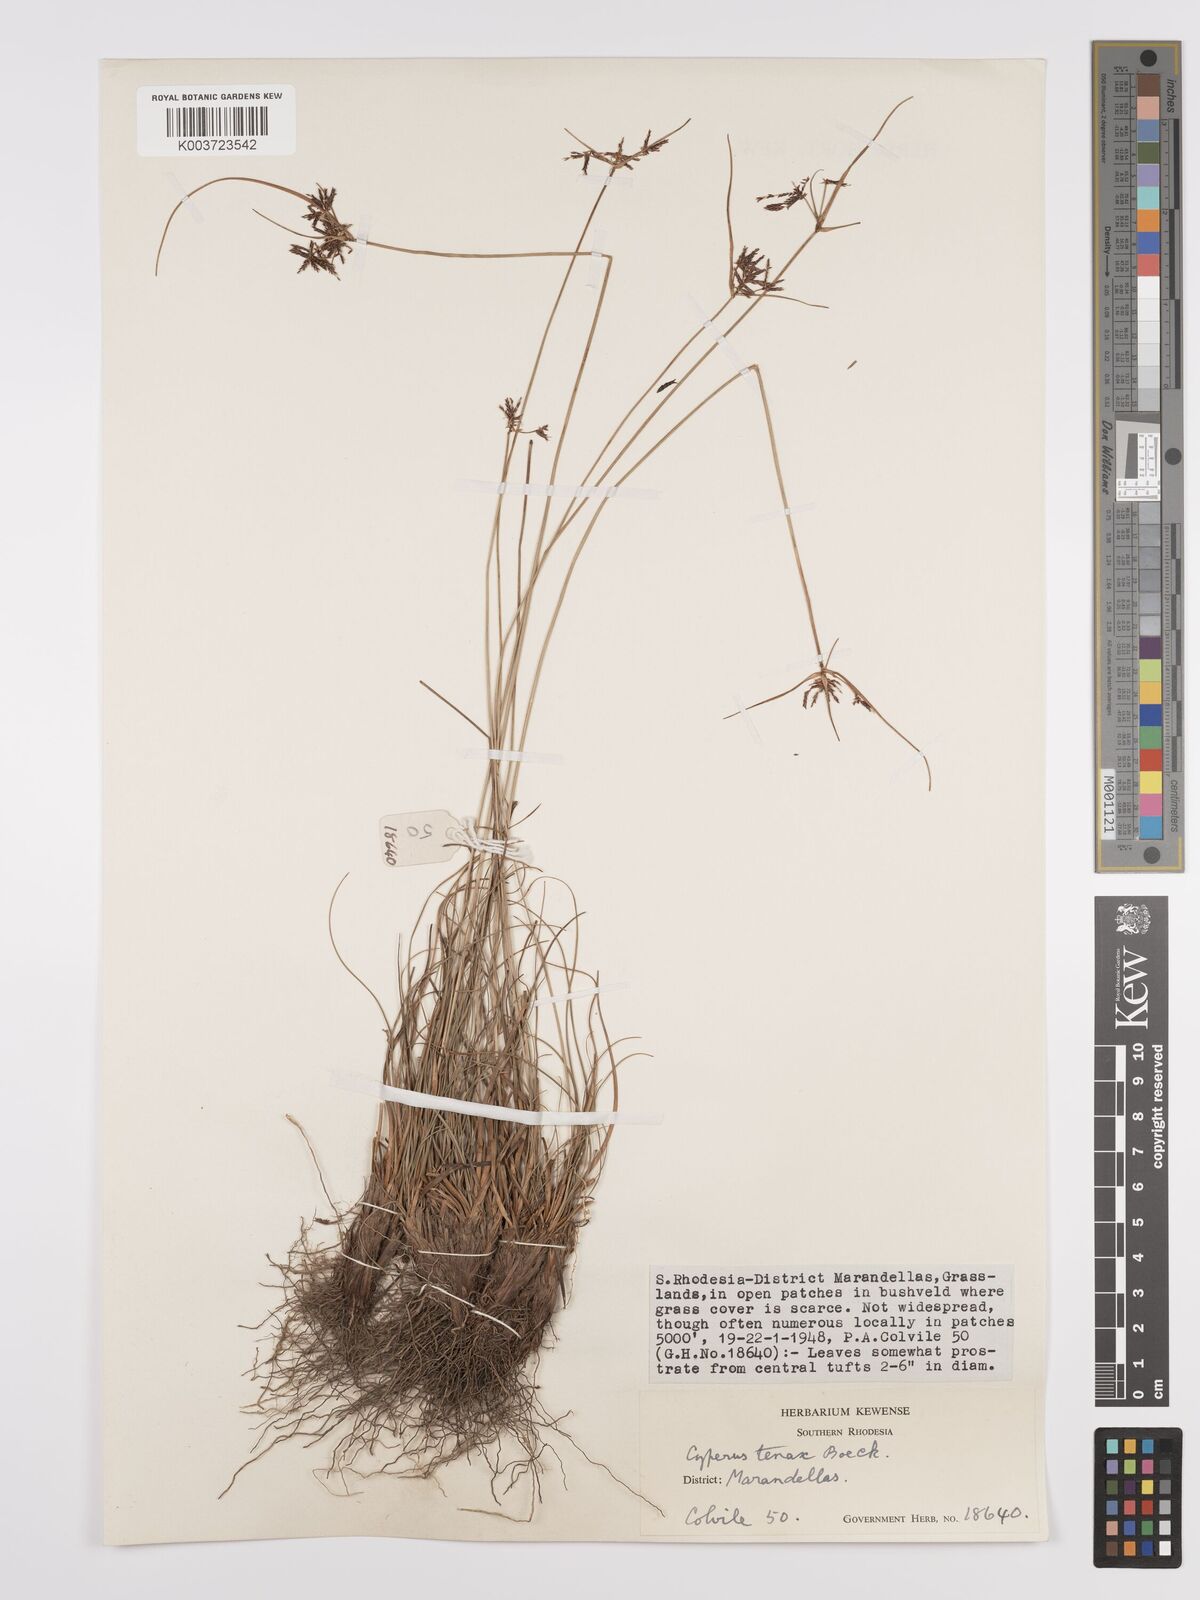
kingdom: Plantae
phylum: Tracheophyta
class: Liliopsida
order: Poales
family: Cyperaceae
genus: Cyperus
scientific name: Cyperus tenax
